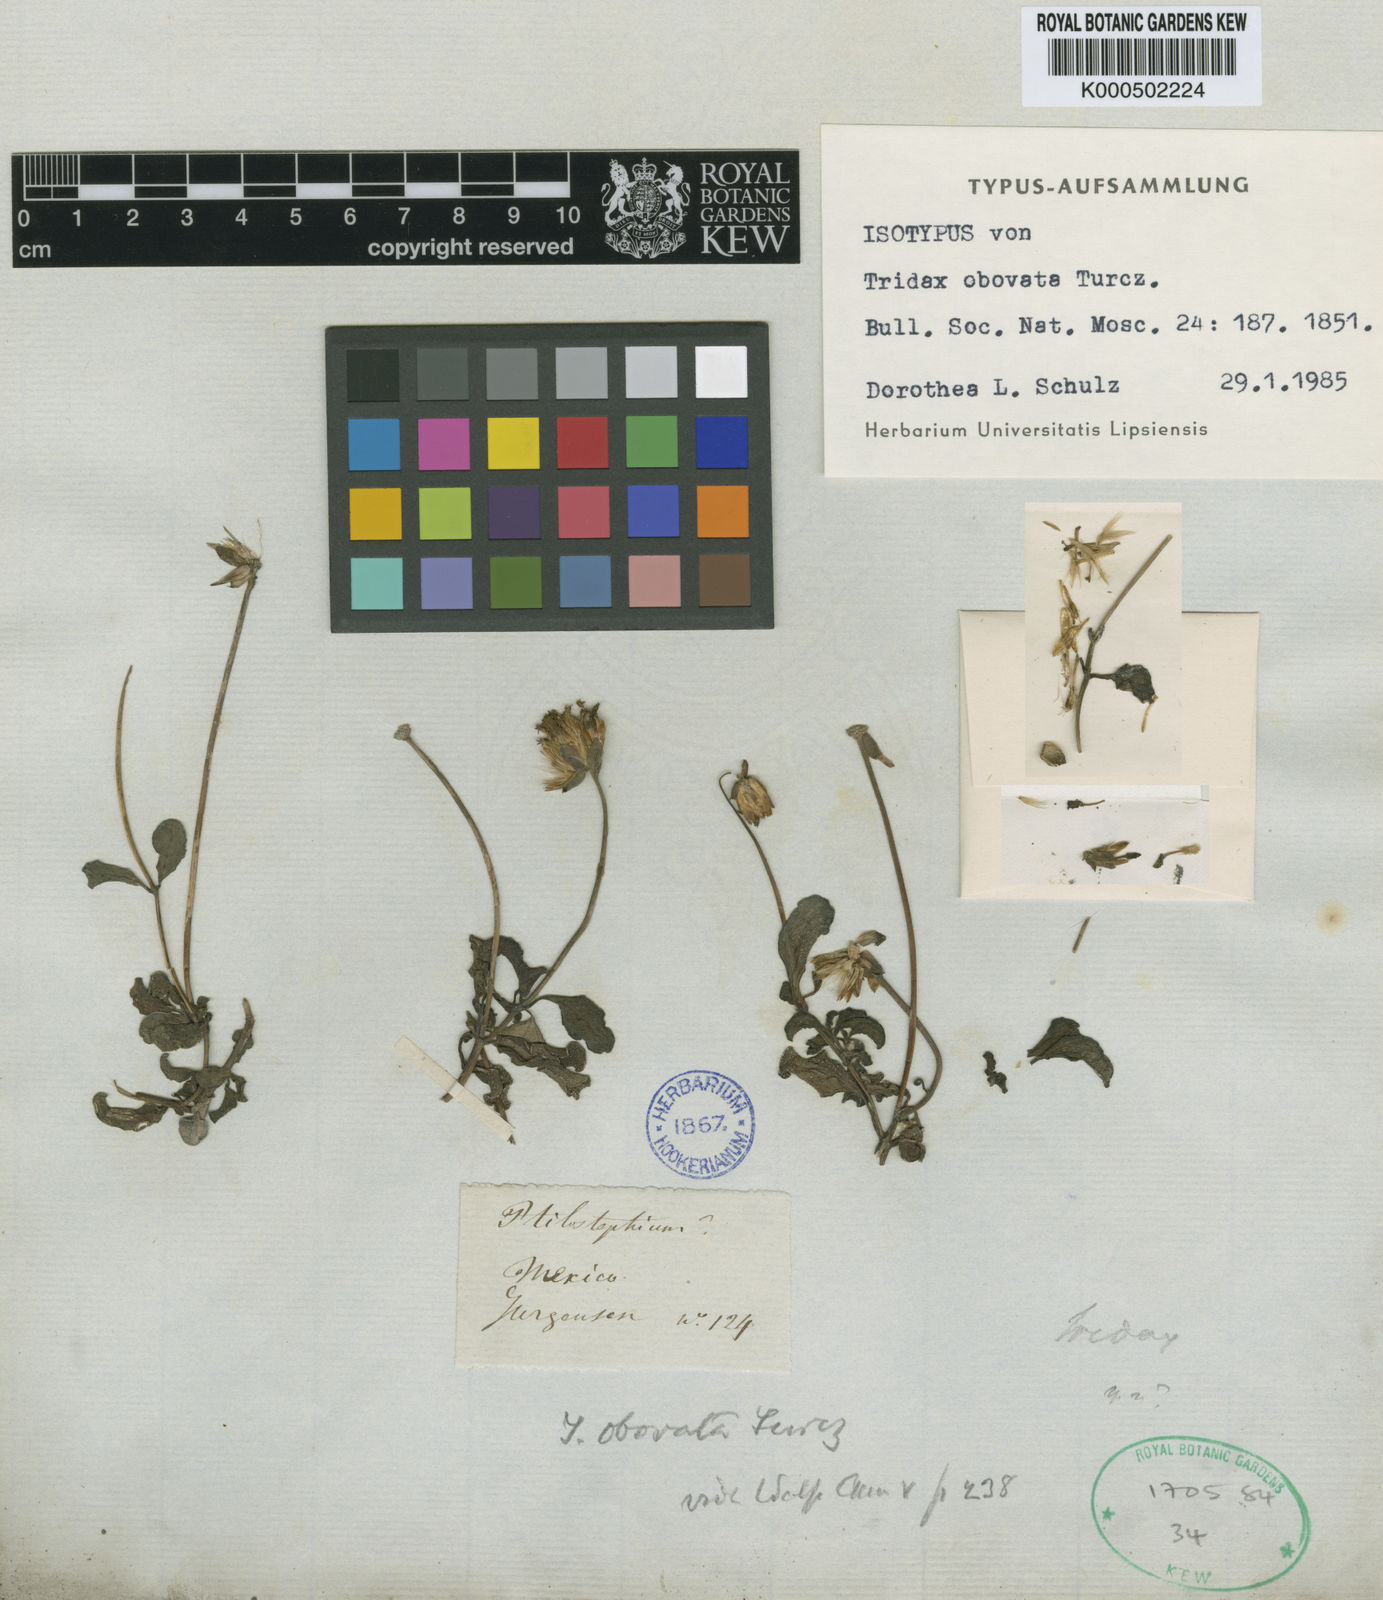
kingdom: Plantae
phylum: Tracheophyta
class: Magnoliopsida
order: Asterales
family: Asteraceae
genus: Tridax
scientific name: Tridax obovata
